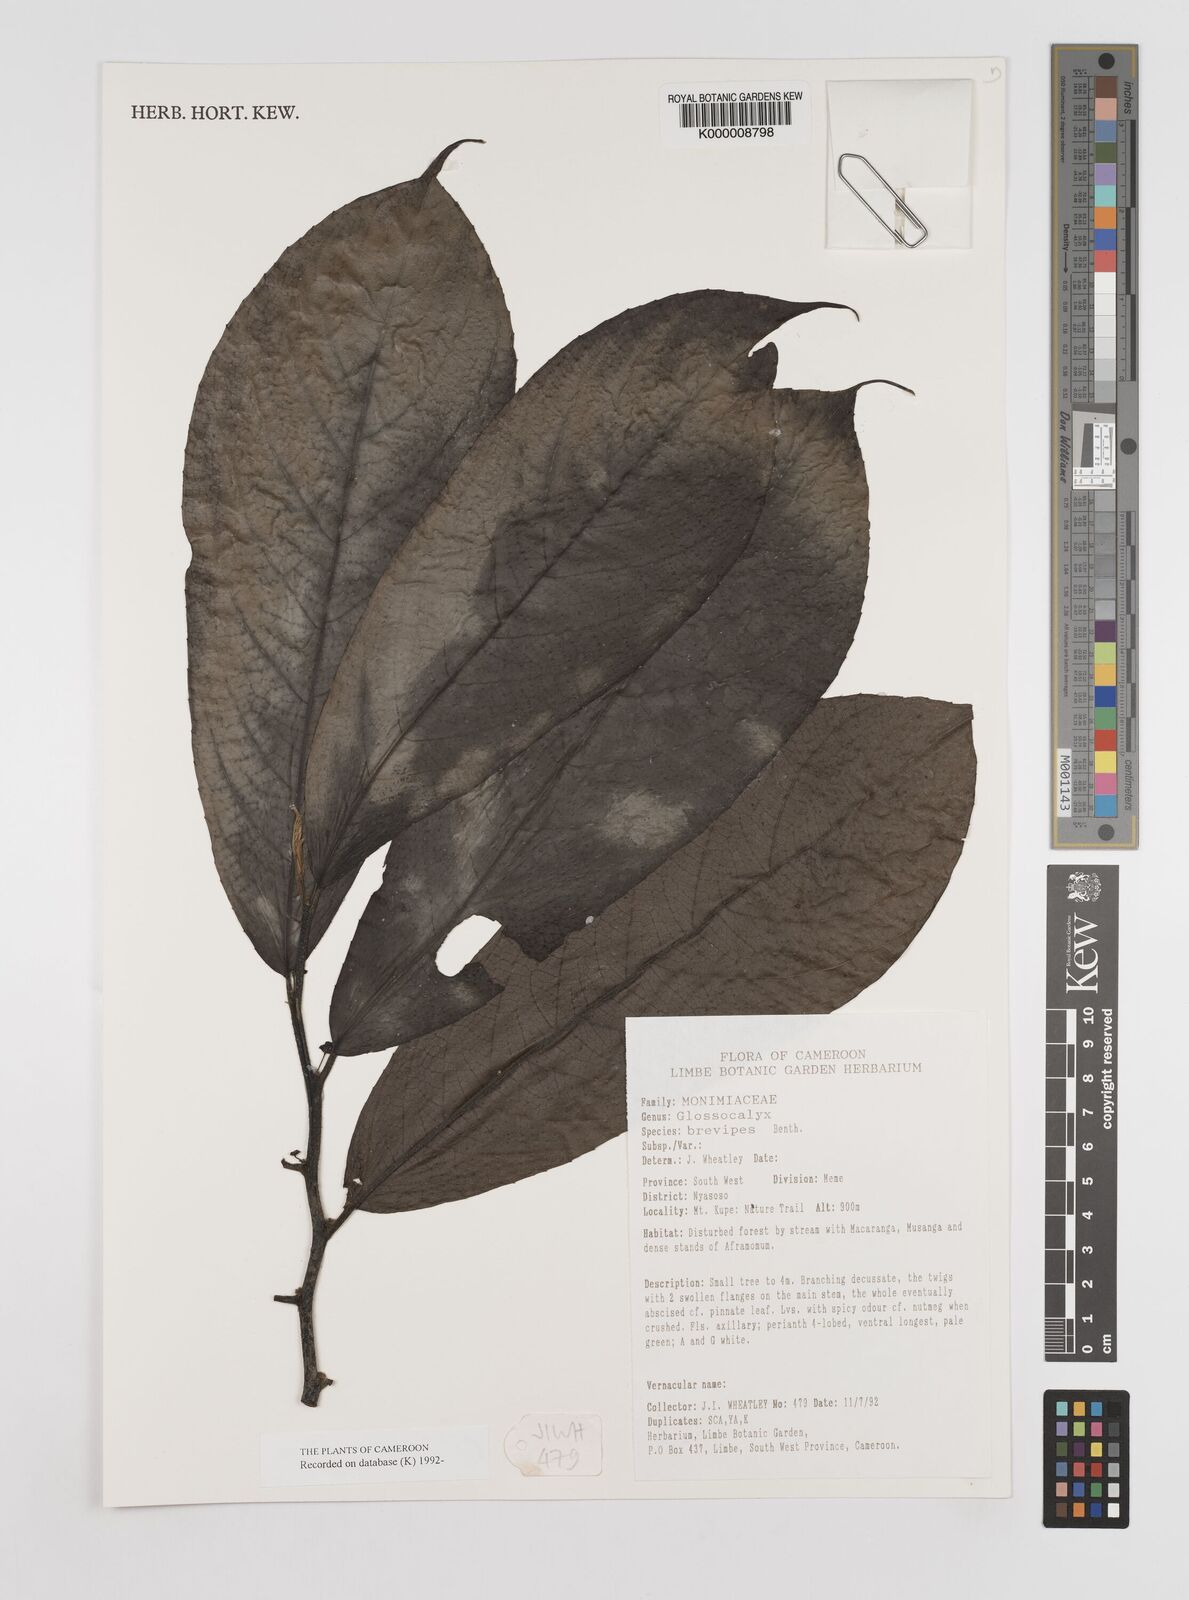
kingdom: Plantae
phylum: Tracheophyta
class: Magnoliopsida
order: Laurales
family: Siparunaceae
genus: Glossocalyx
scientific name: Glossocalyx brevipes
